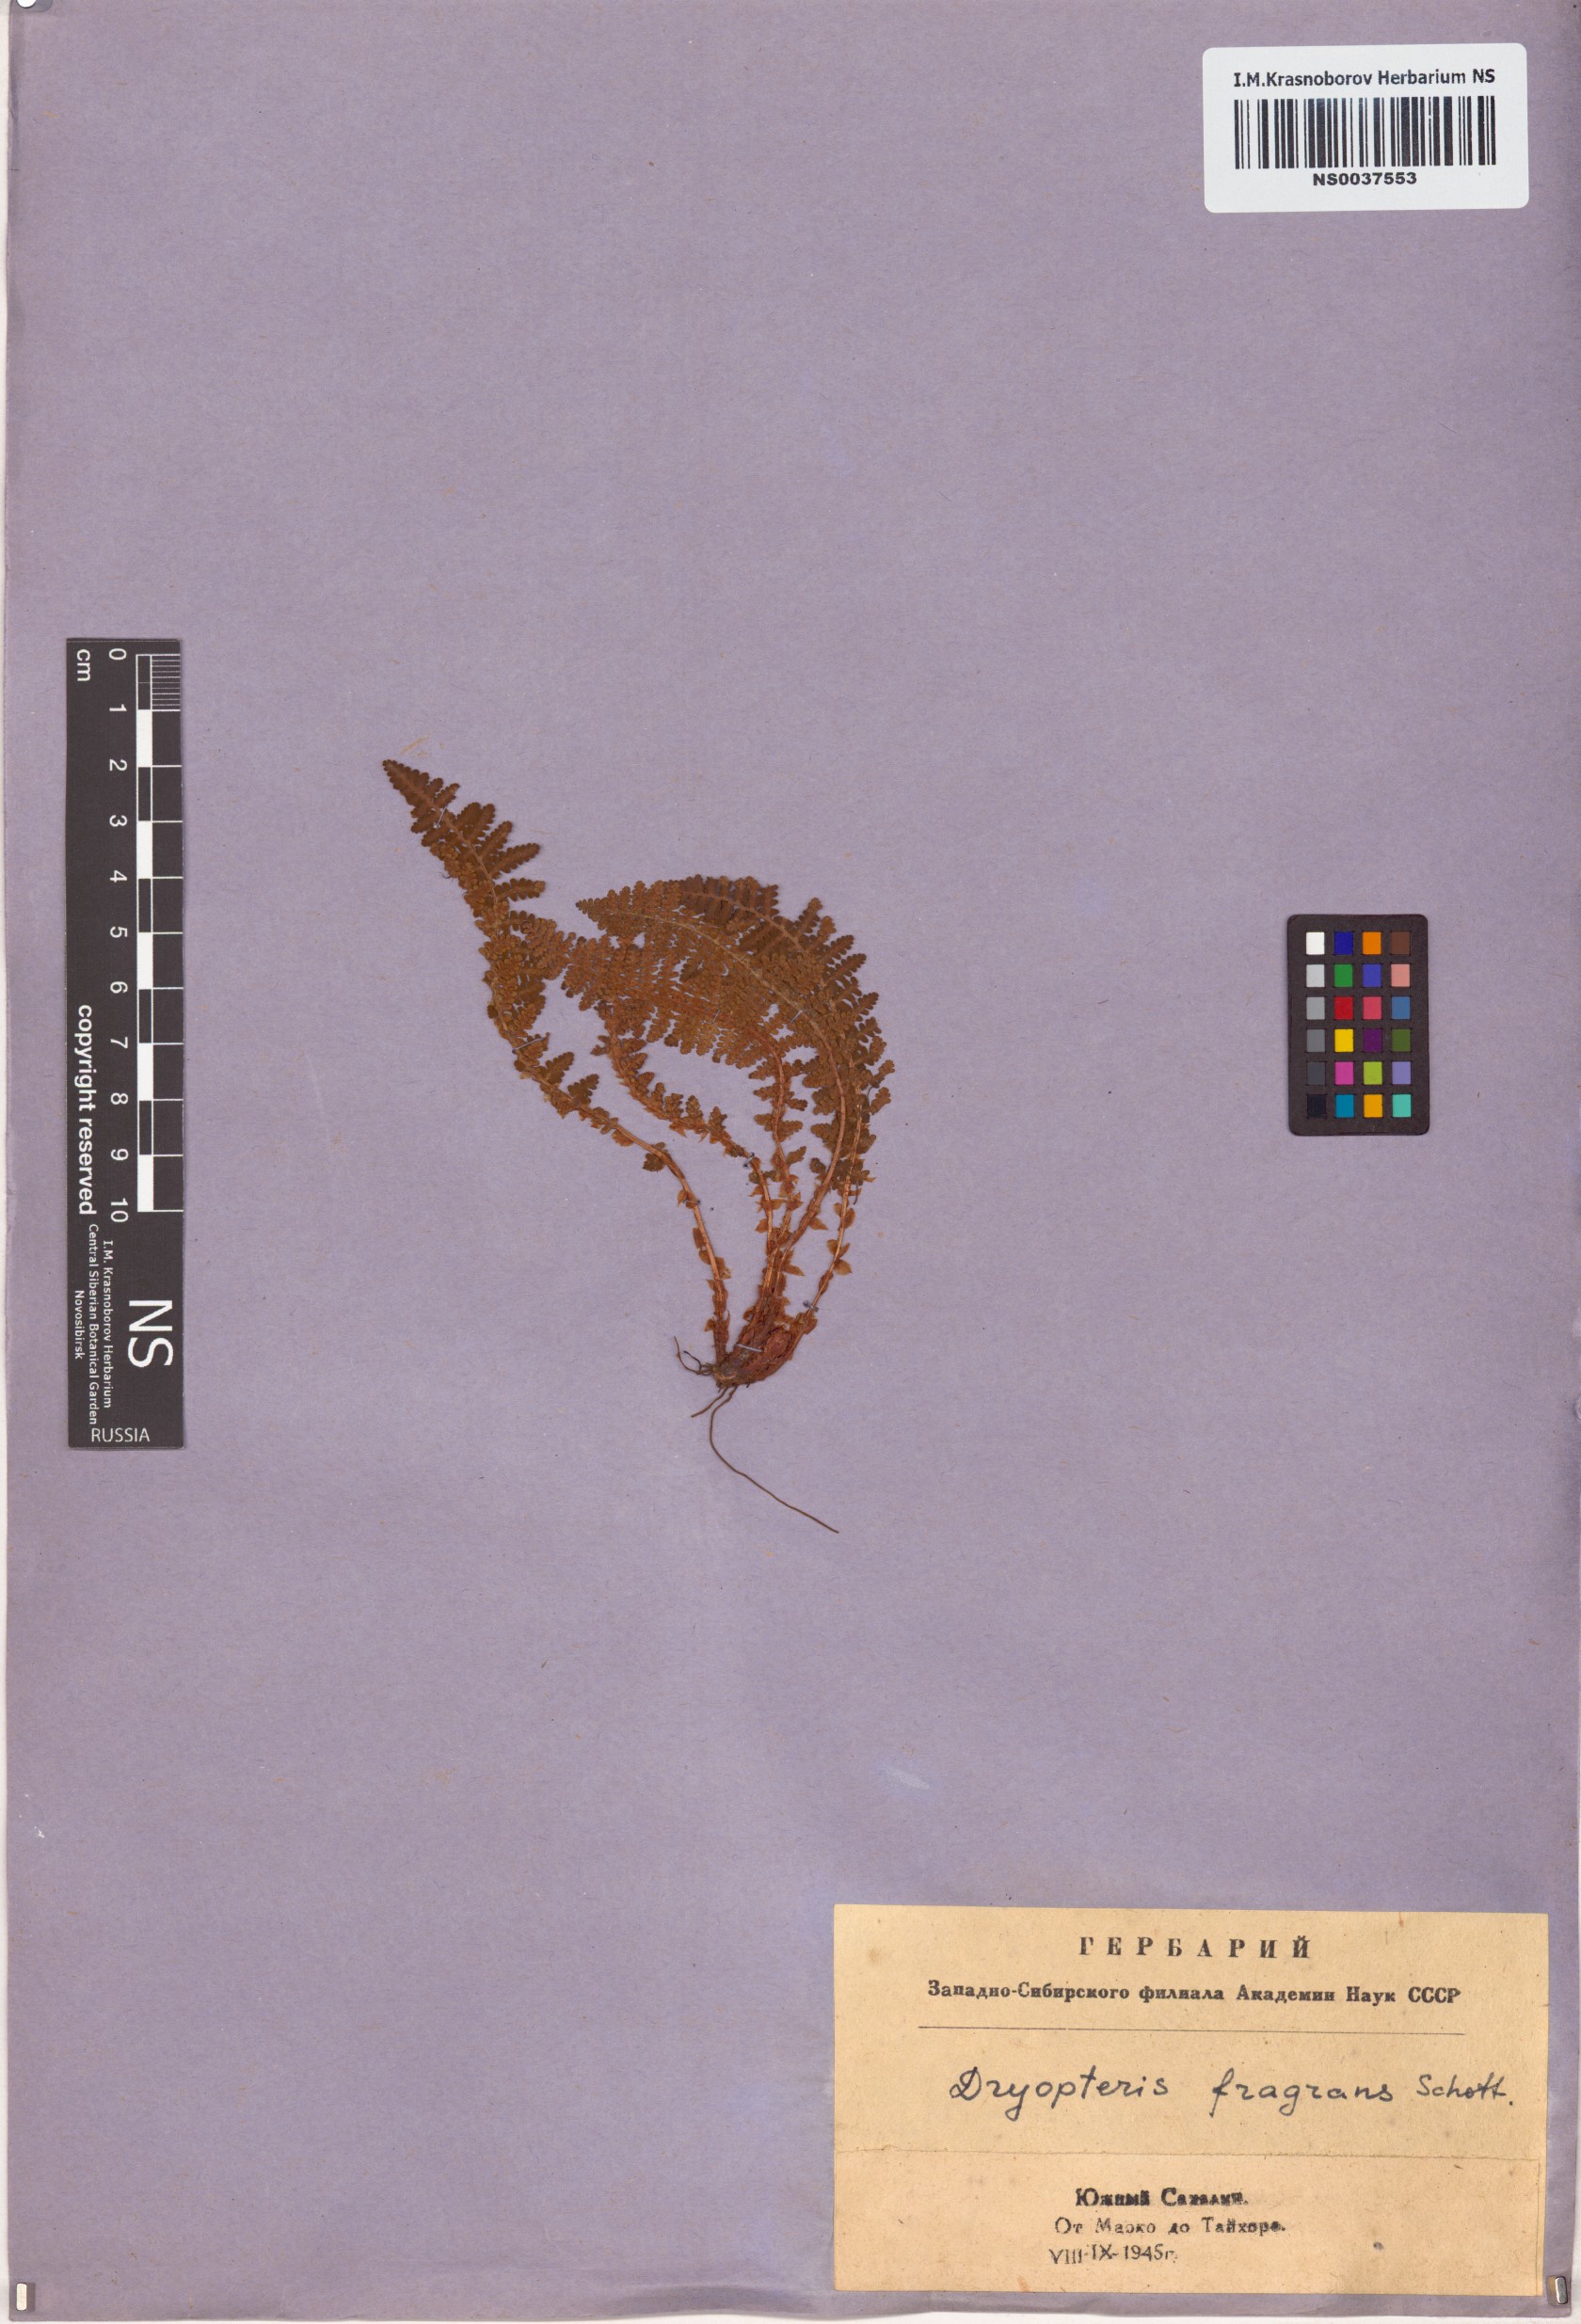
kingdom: Plantae
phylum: Tracheophyta
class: Polypodiopsida
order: Polypodiales
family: Dryopteridaceae
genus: Dryopteris
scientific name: Dryopteris fragrans
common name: Fragrant wood fern
